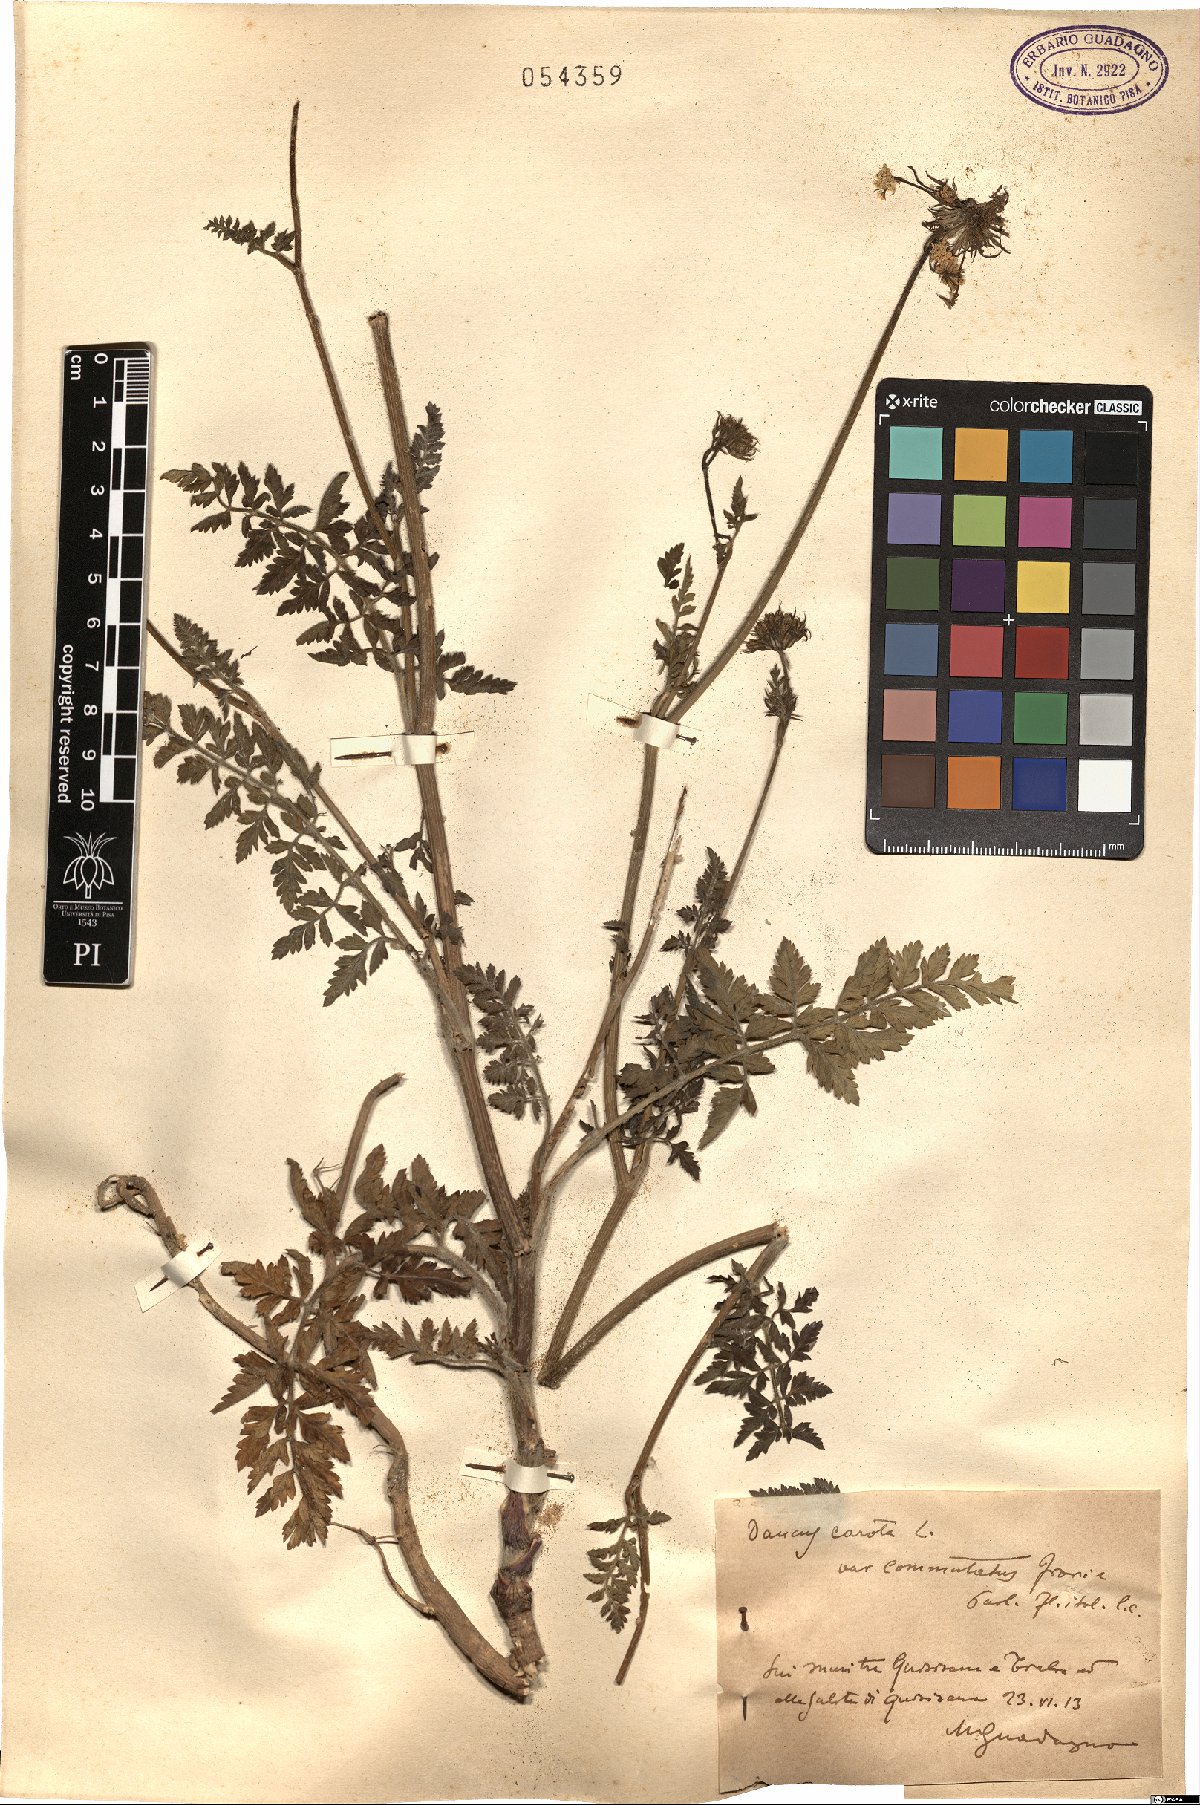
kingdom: Plantae
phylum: Tracheophyta
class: Magnoliopsida
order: Apiales
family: Apiaceae
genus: Daucus
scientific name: Daucus carota
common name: Wild carrot
